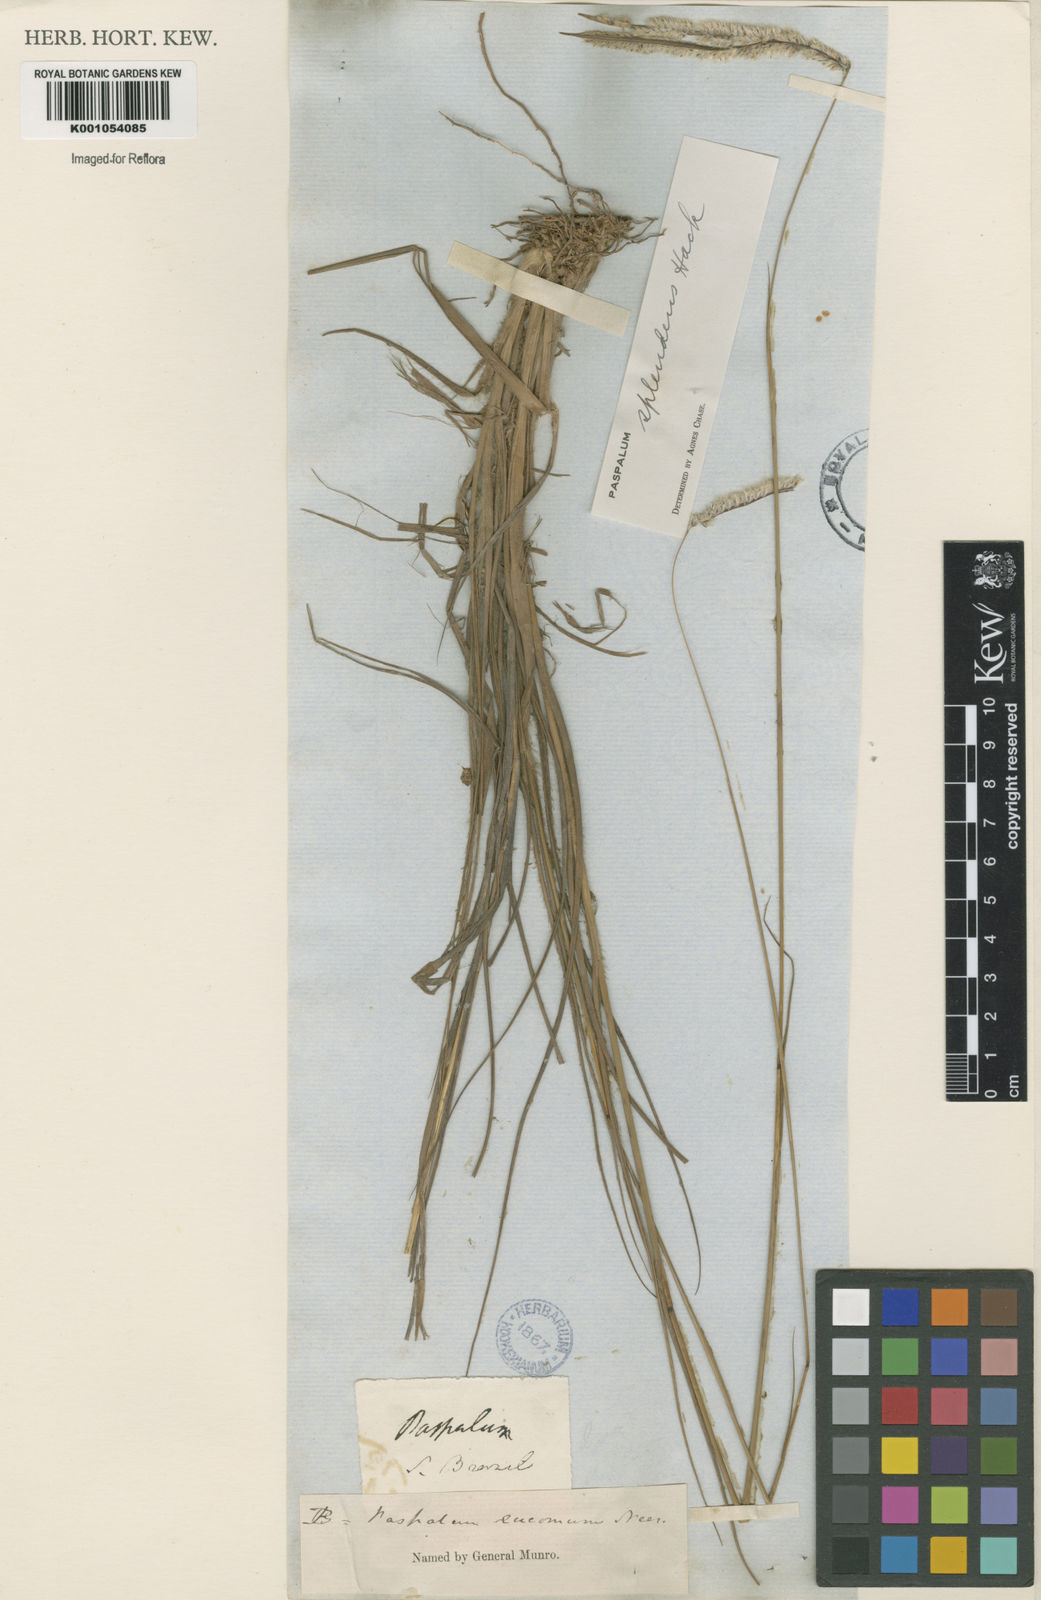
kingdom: Plantae
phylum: Tracheophyta
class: Liliopsida
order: Poales
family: Poaceae
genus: Paspalum
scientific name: Paspalum eucomum
